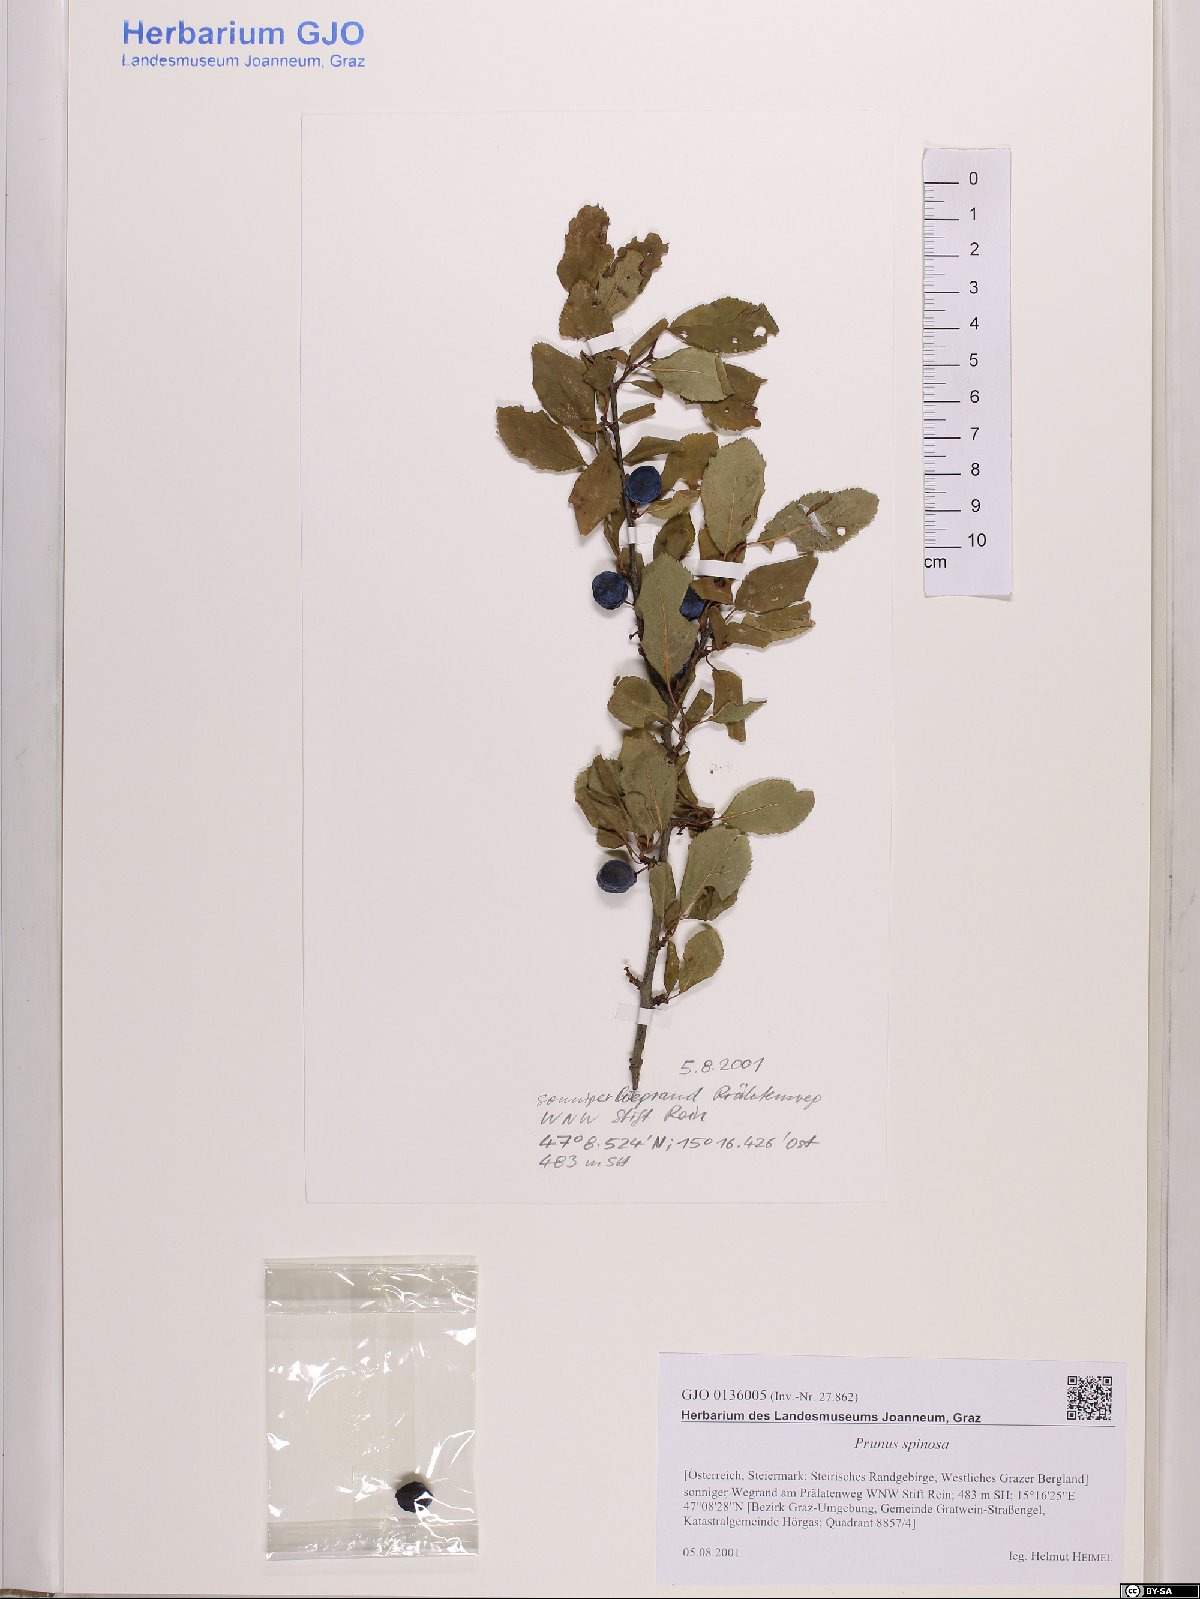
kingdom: Plantae
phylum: Tracheophyta
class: Magnoliopsida
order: Rosales
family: Rosaceae
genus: Prunus
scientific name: Prunus spinosa
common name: Blackthorn
